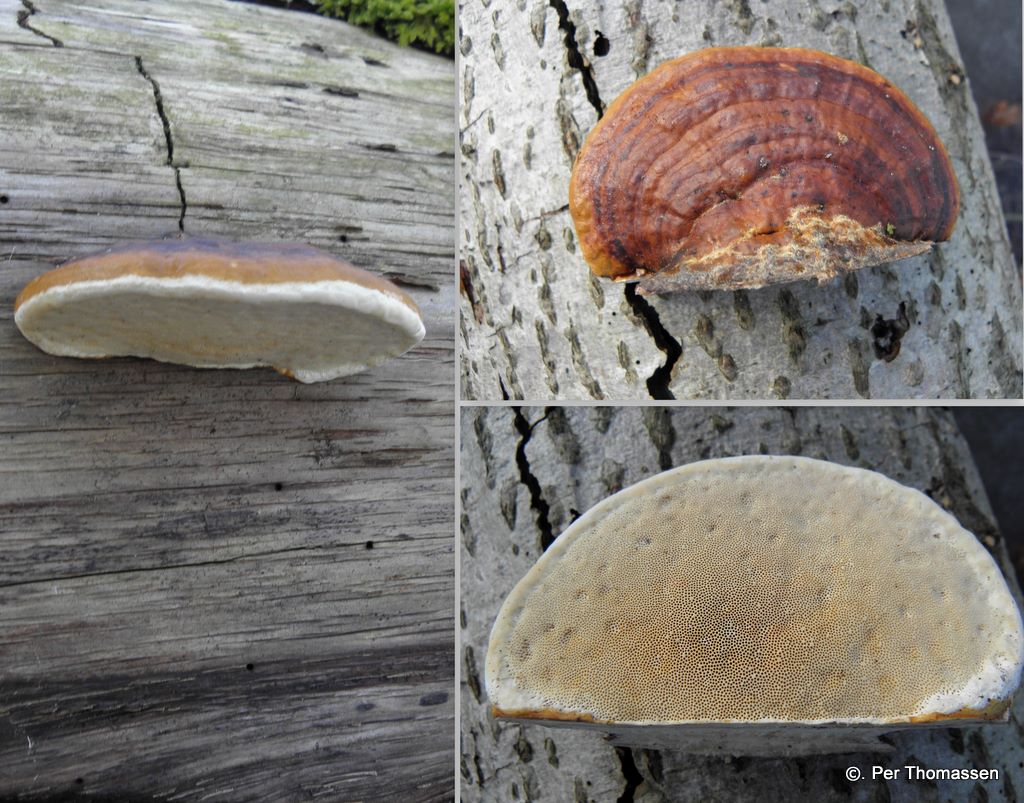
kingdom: Fungi
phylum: Basidiomycota
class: Agaricomycetes
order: Polyporales
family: Fomitopsidaceae
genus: Fomitopsis
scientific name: Fomitopsis pinicola
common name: randbæltet hovporesvamp
